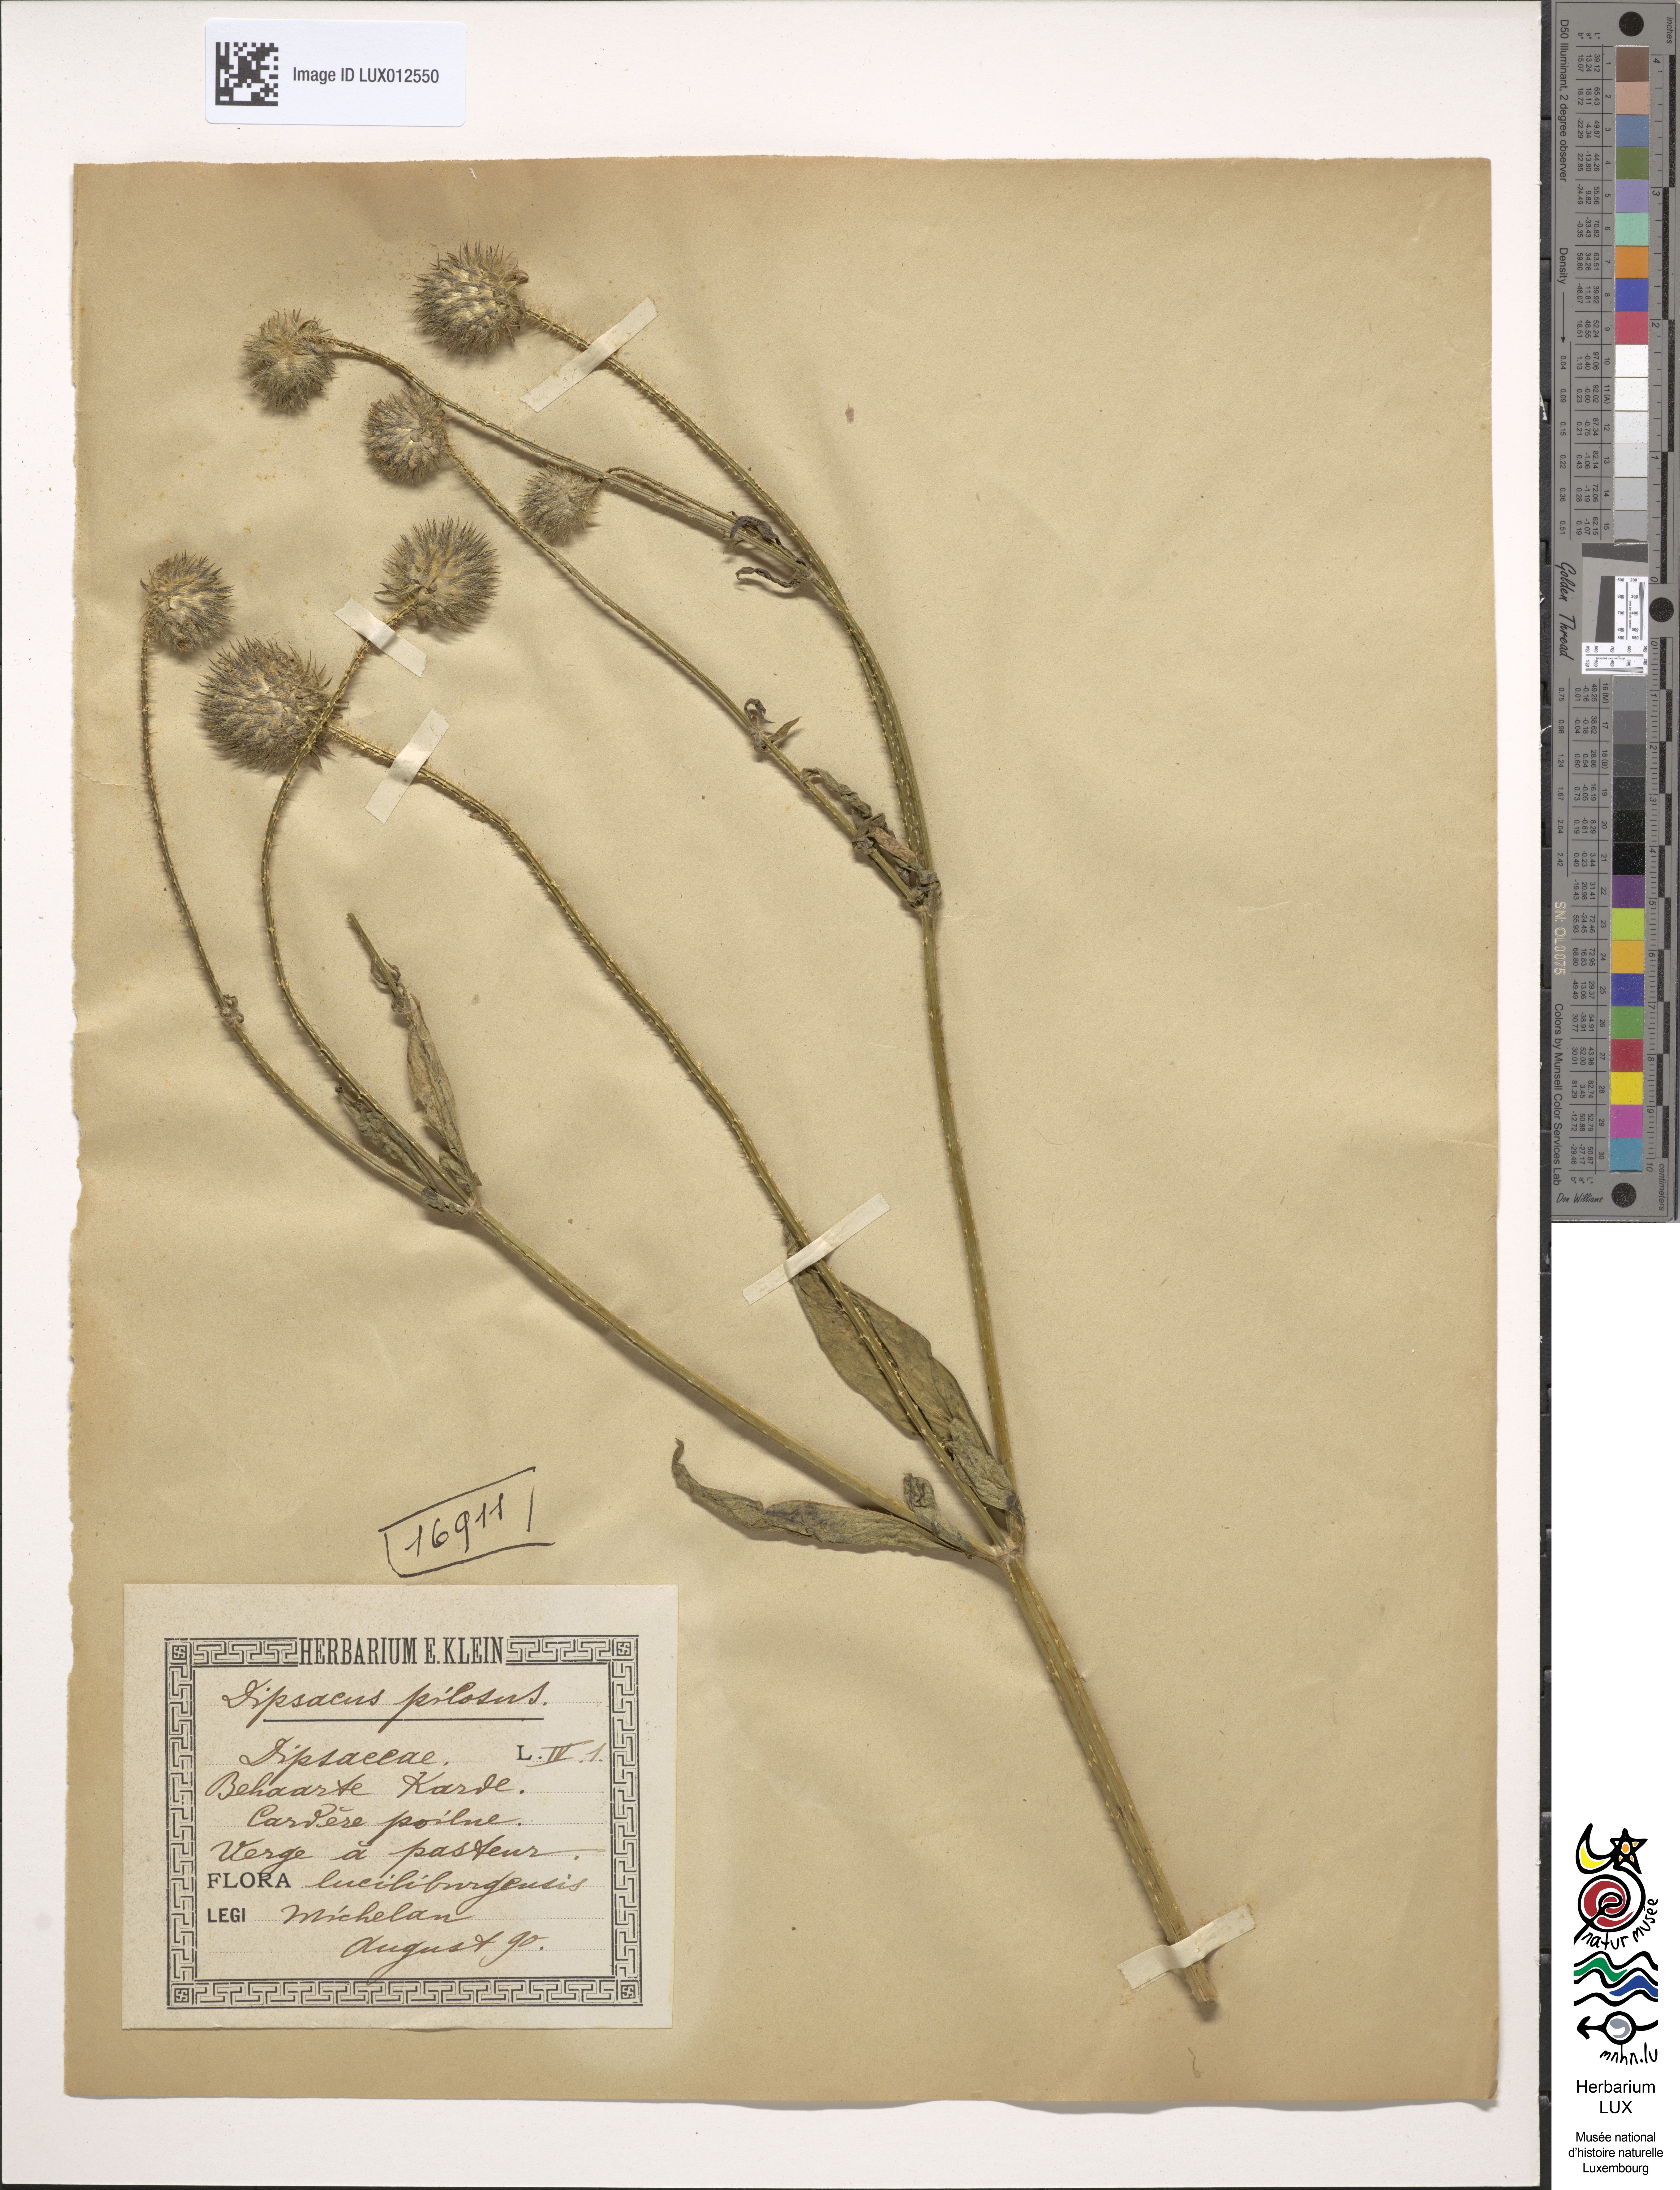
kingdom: Plantae
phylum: Tracheophyta
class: Magnoliopsida
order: Dipsacales
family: Caprifoliaceae
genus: Dipsacus
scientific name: Dipsacus pilosus
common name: Small teasel
